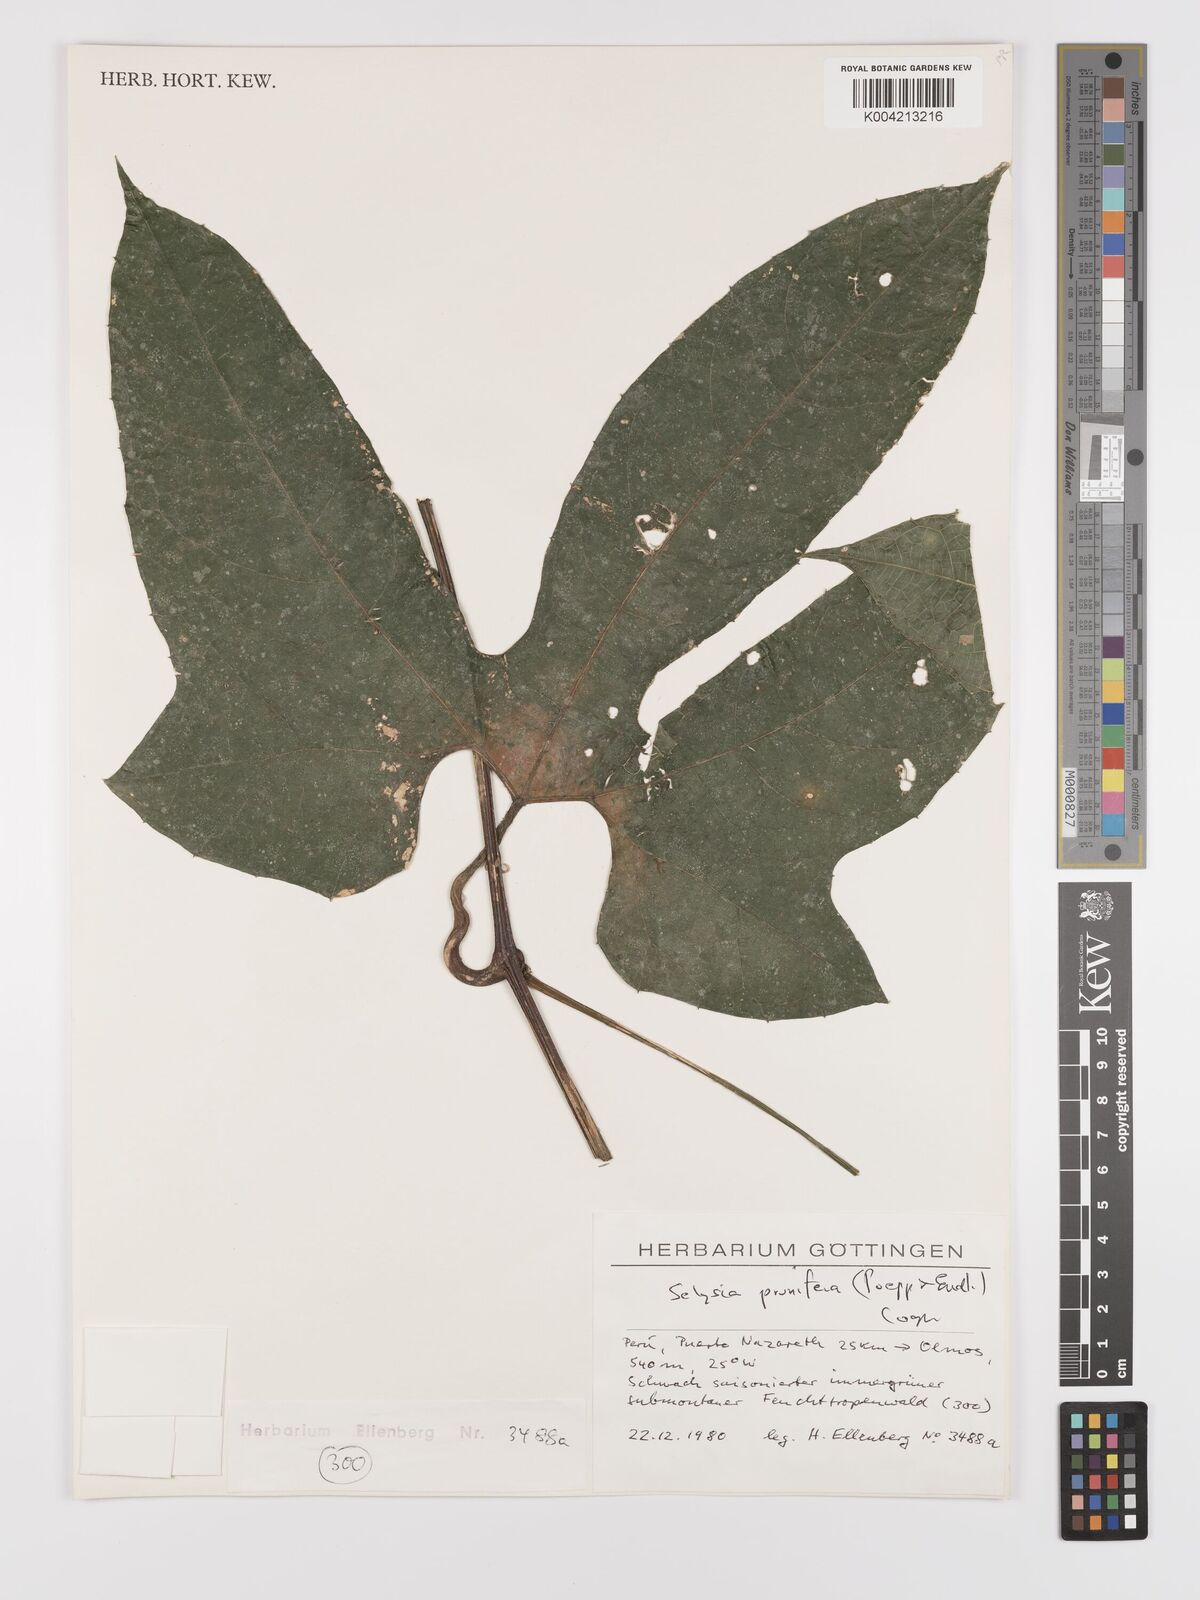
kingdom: Plantae
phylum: Tracheophyta
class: Magnoliopsida
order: Cucurbitales
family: Cucurbitaceae
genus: Cayaponia
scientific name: Cayaponia prunifera
